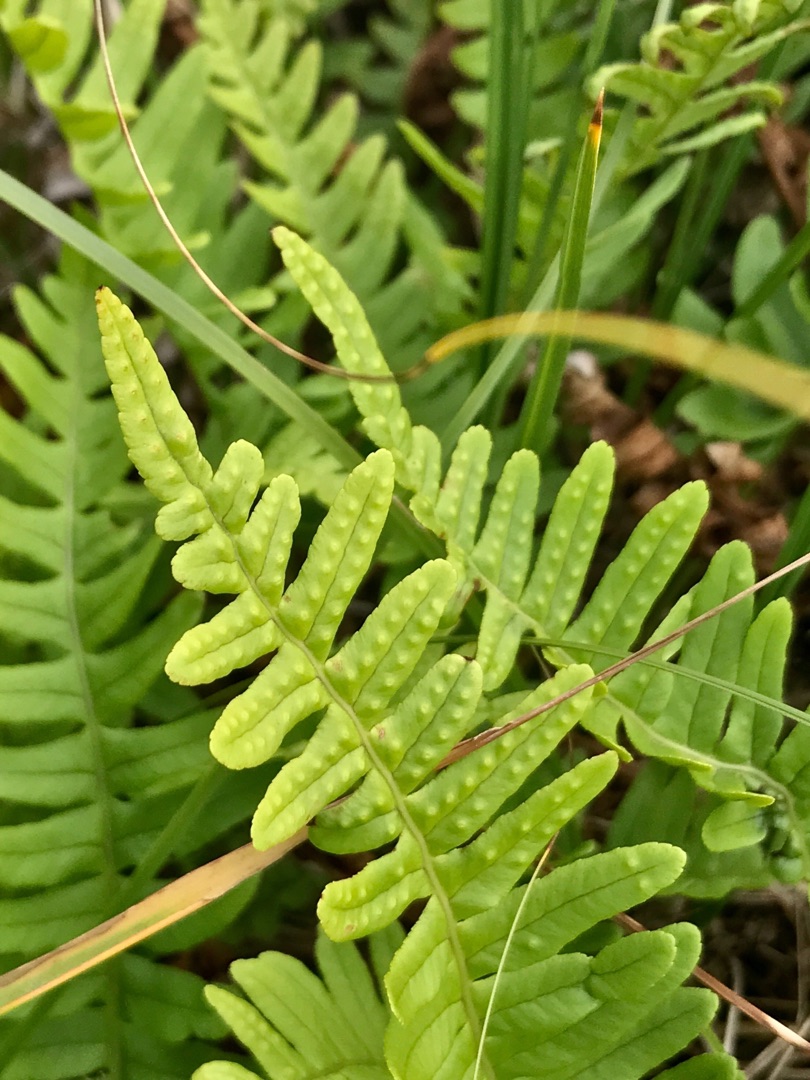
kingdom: Plantae
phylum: Tracheophyta
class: Polypodiopsida
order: Polypodiales
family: Polypodiaceae
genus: Polypodium
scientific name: Polypodium vulgare
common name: Almindelig engelsød
